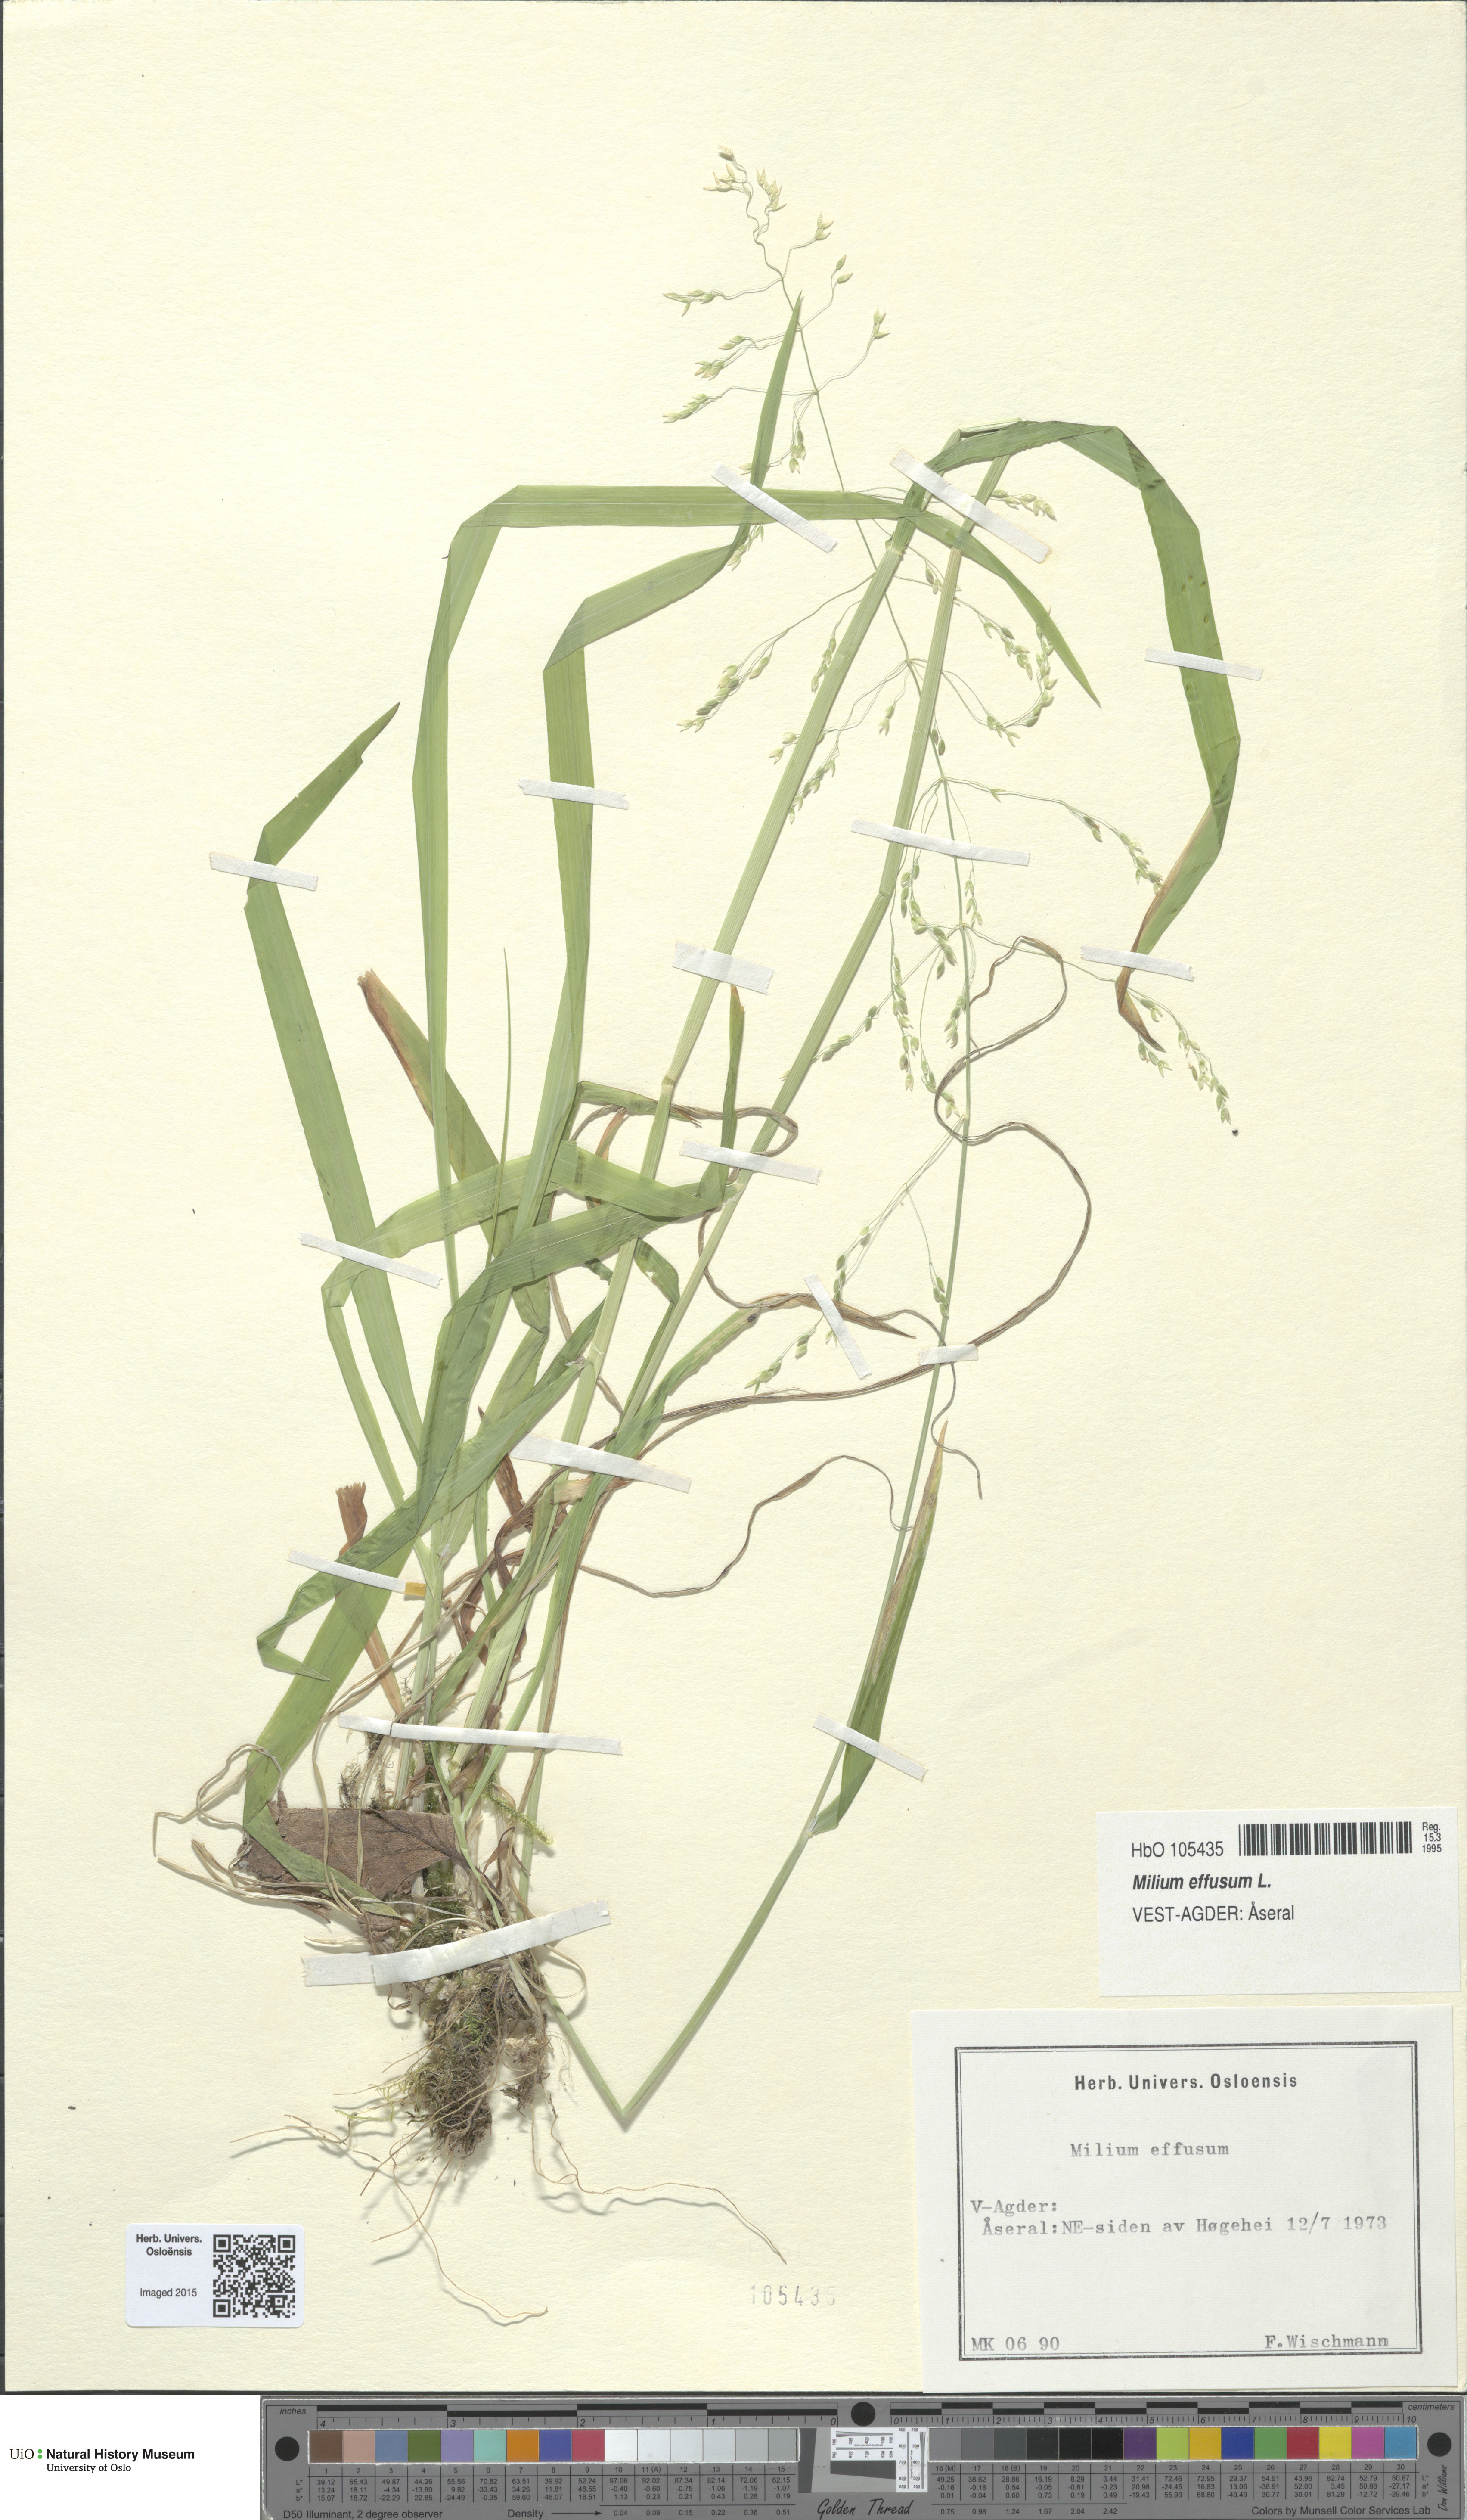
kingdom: Plantae
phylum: Tracheophyta
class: Liliopsida
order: Poales
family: Poaceae
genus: Milium
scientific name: Milium effusum
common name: Wood millet
